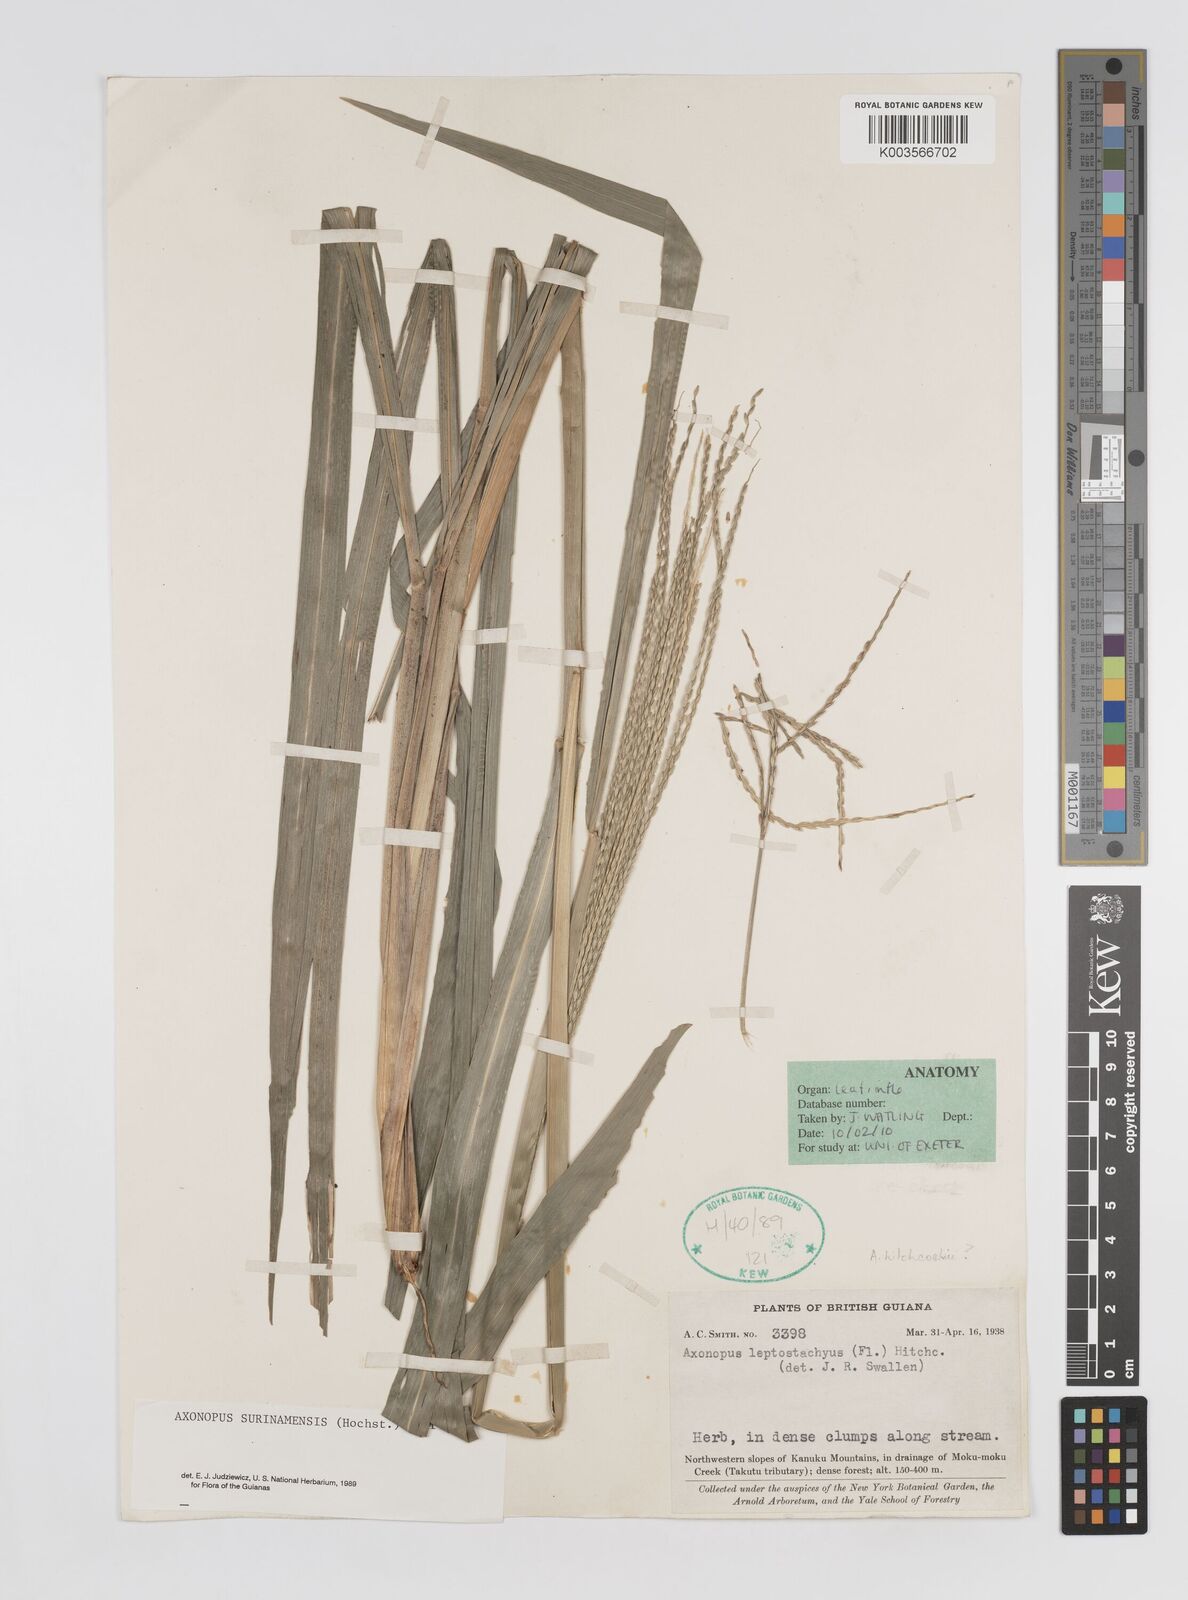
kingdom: Plantae
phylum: Tracheophyta
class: Liliopsida
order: Poales
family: Poaceae
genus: Axonopus
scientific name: Axonopus surinamensis
